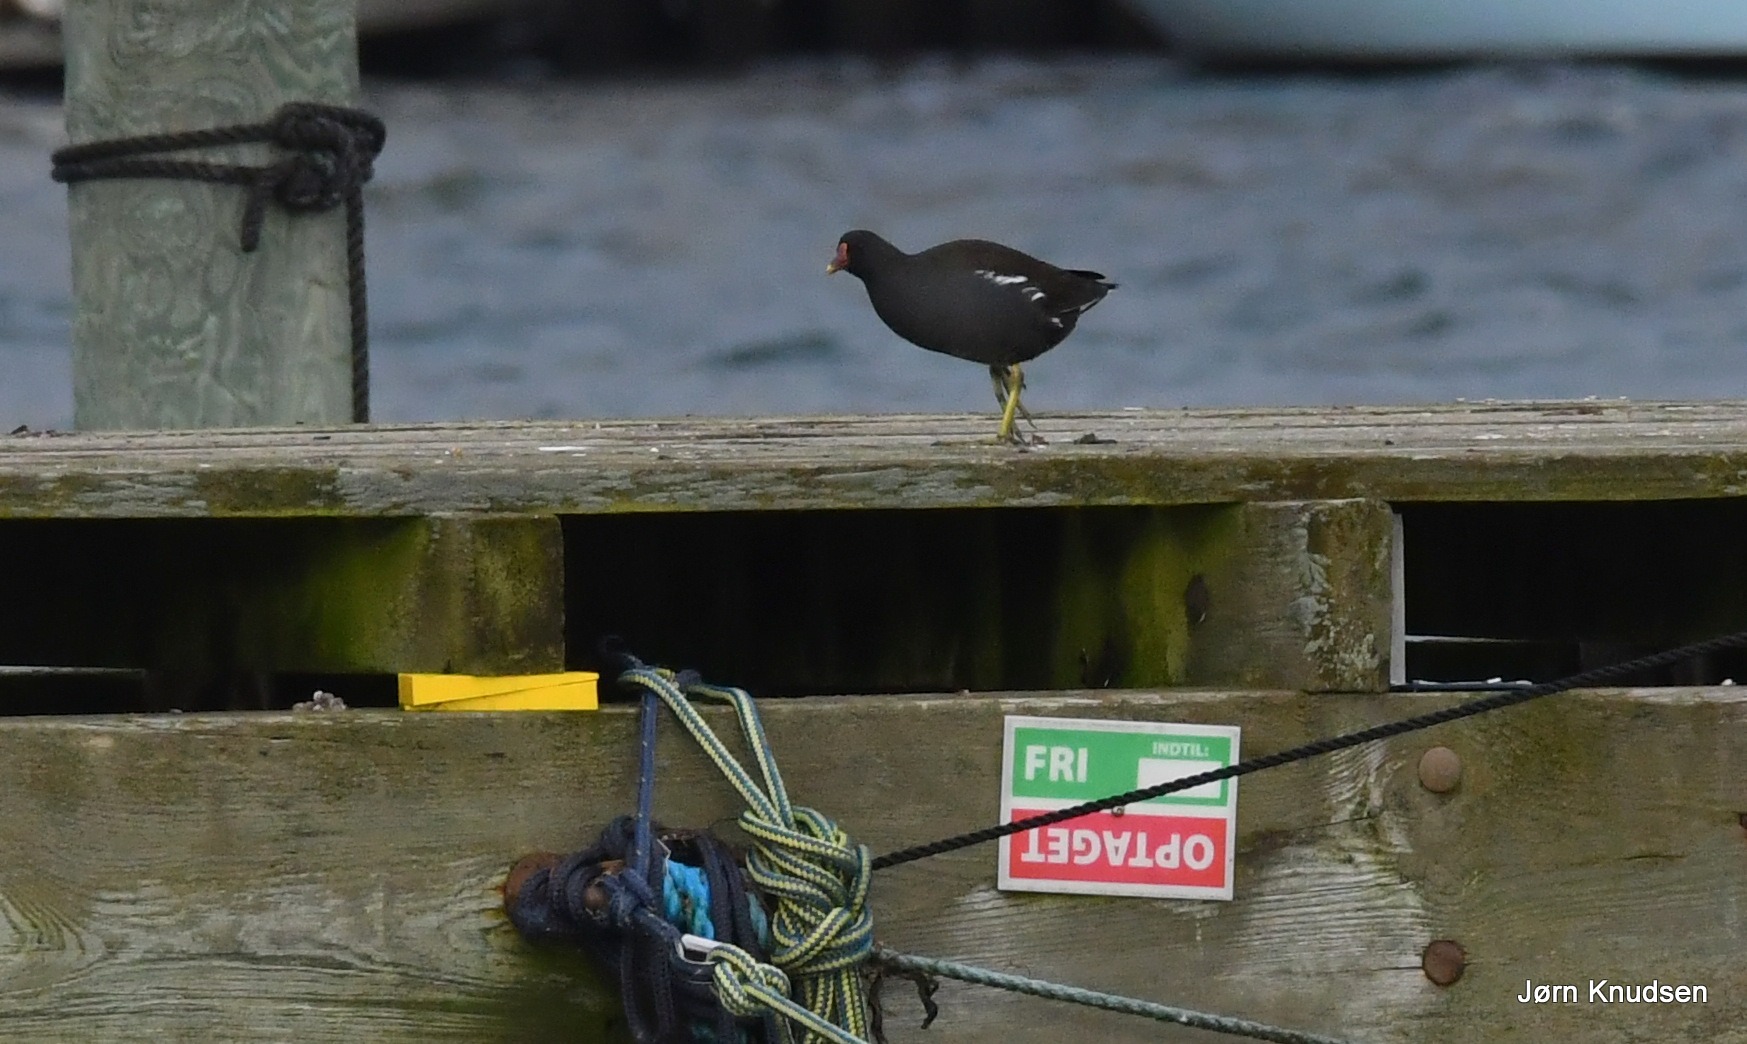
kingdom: Animalia
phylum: Chordata
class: Aves
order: Gruiformes
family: Rallidae
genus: Gallinula
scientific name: Gallinula chloropus
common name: Grønbenet rørhøne
